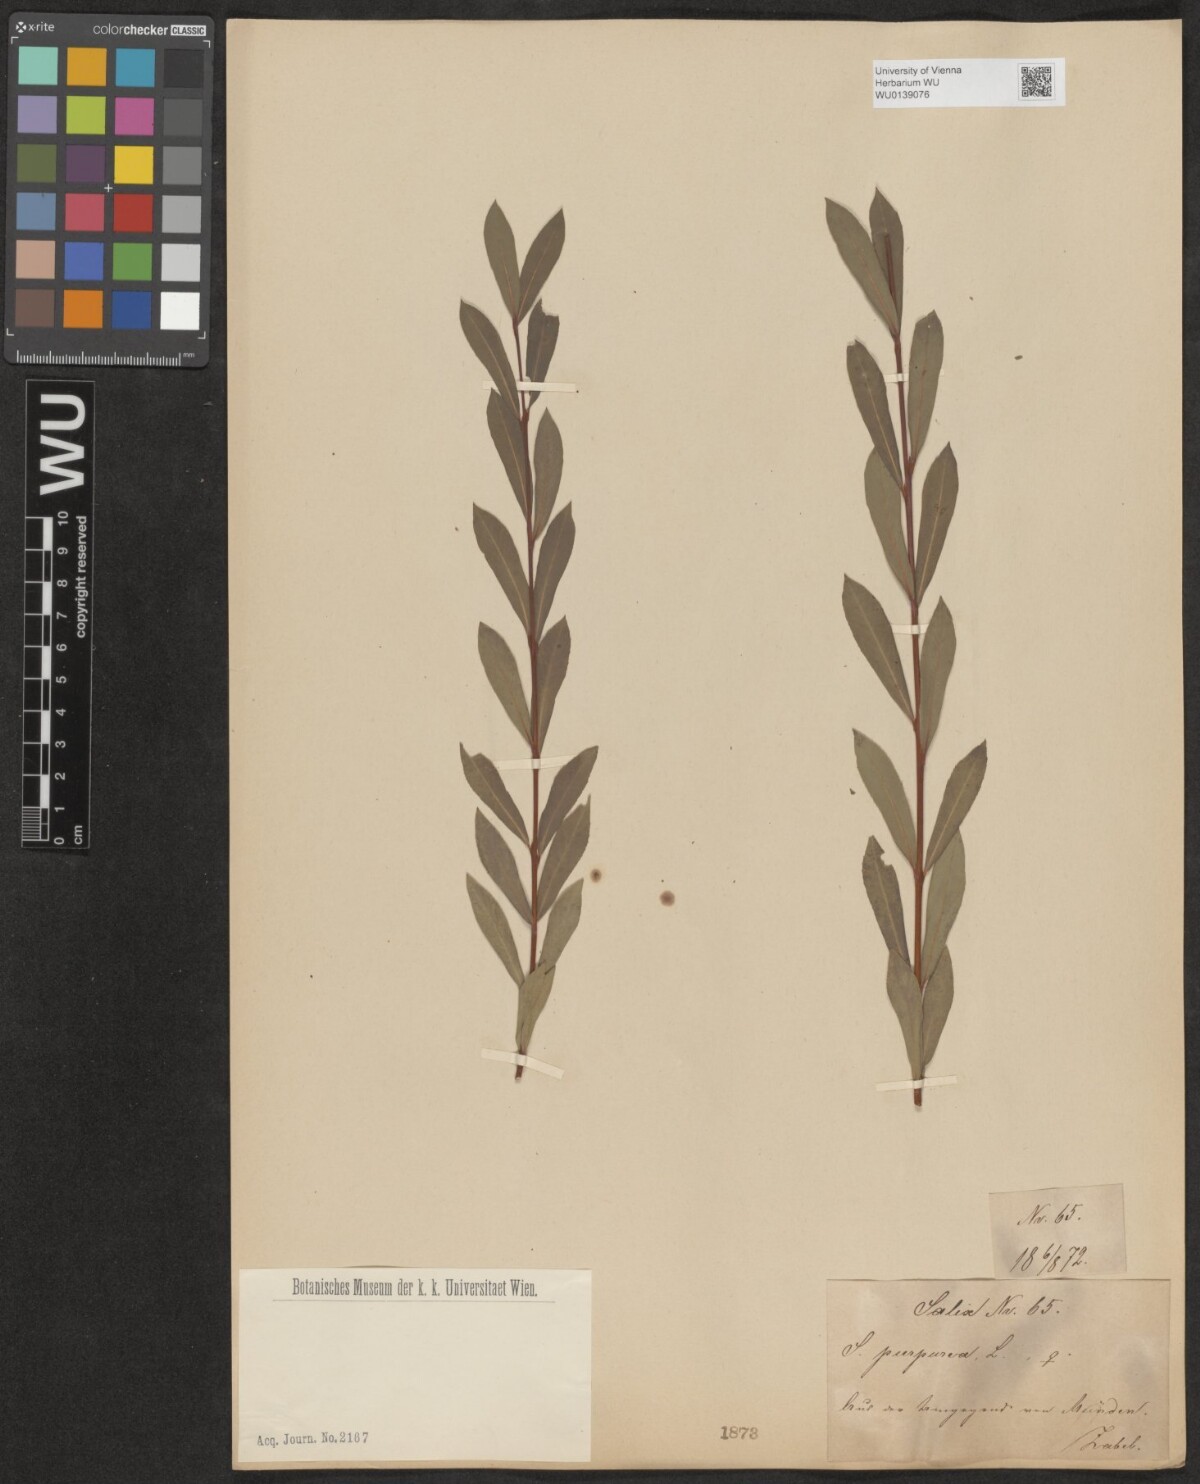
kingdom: Plantae
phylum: Tracheophyta
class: Magnoliopsida
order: Malpighiales
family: Salicaceae
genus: Salix
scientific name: Salix purpurea
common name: Purple willow
